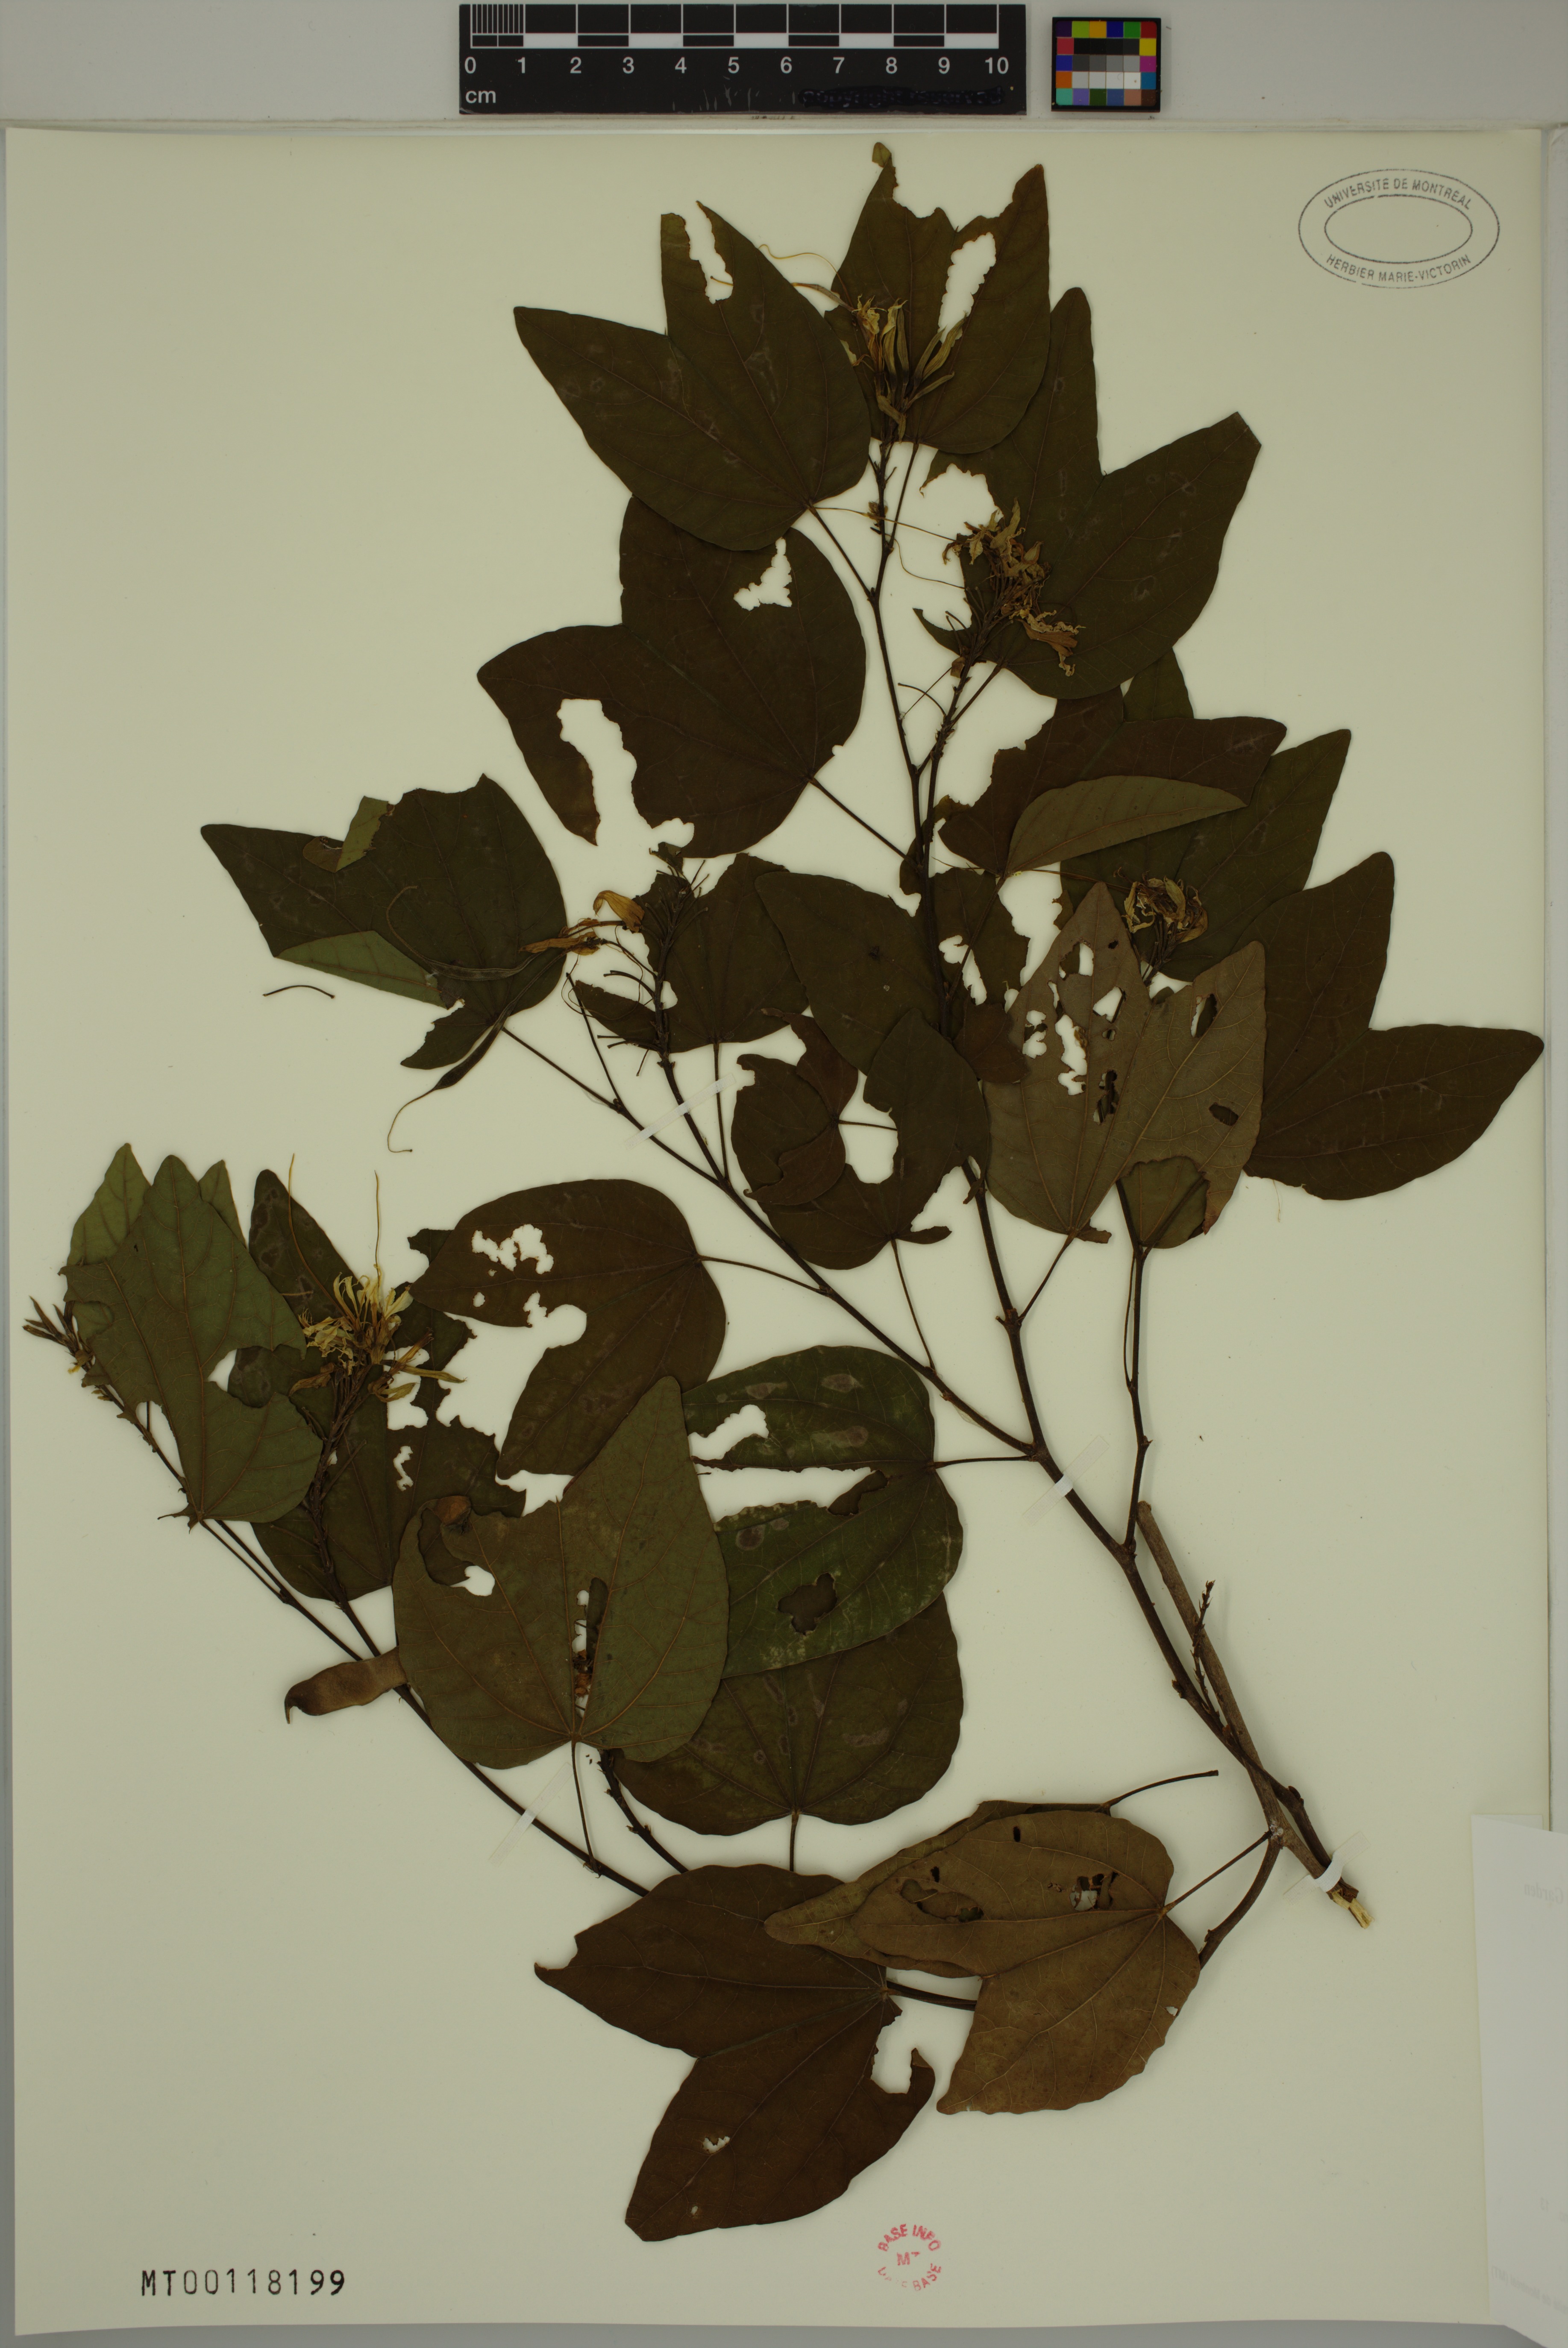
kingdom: Plantae
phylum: Tracheophyta
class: Magnoliopsida
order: Fabales
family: Fabaceae
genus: Bauhinia
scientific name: Bauhinia divaricata
